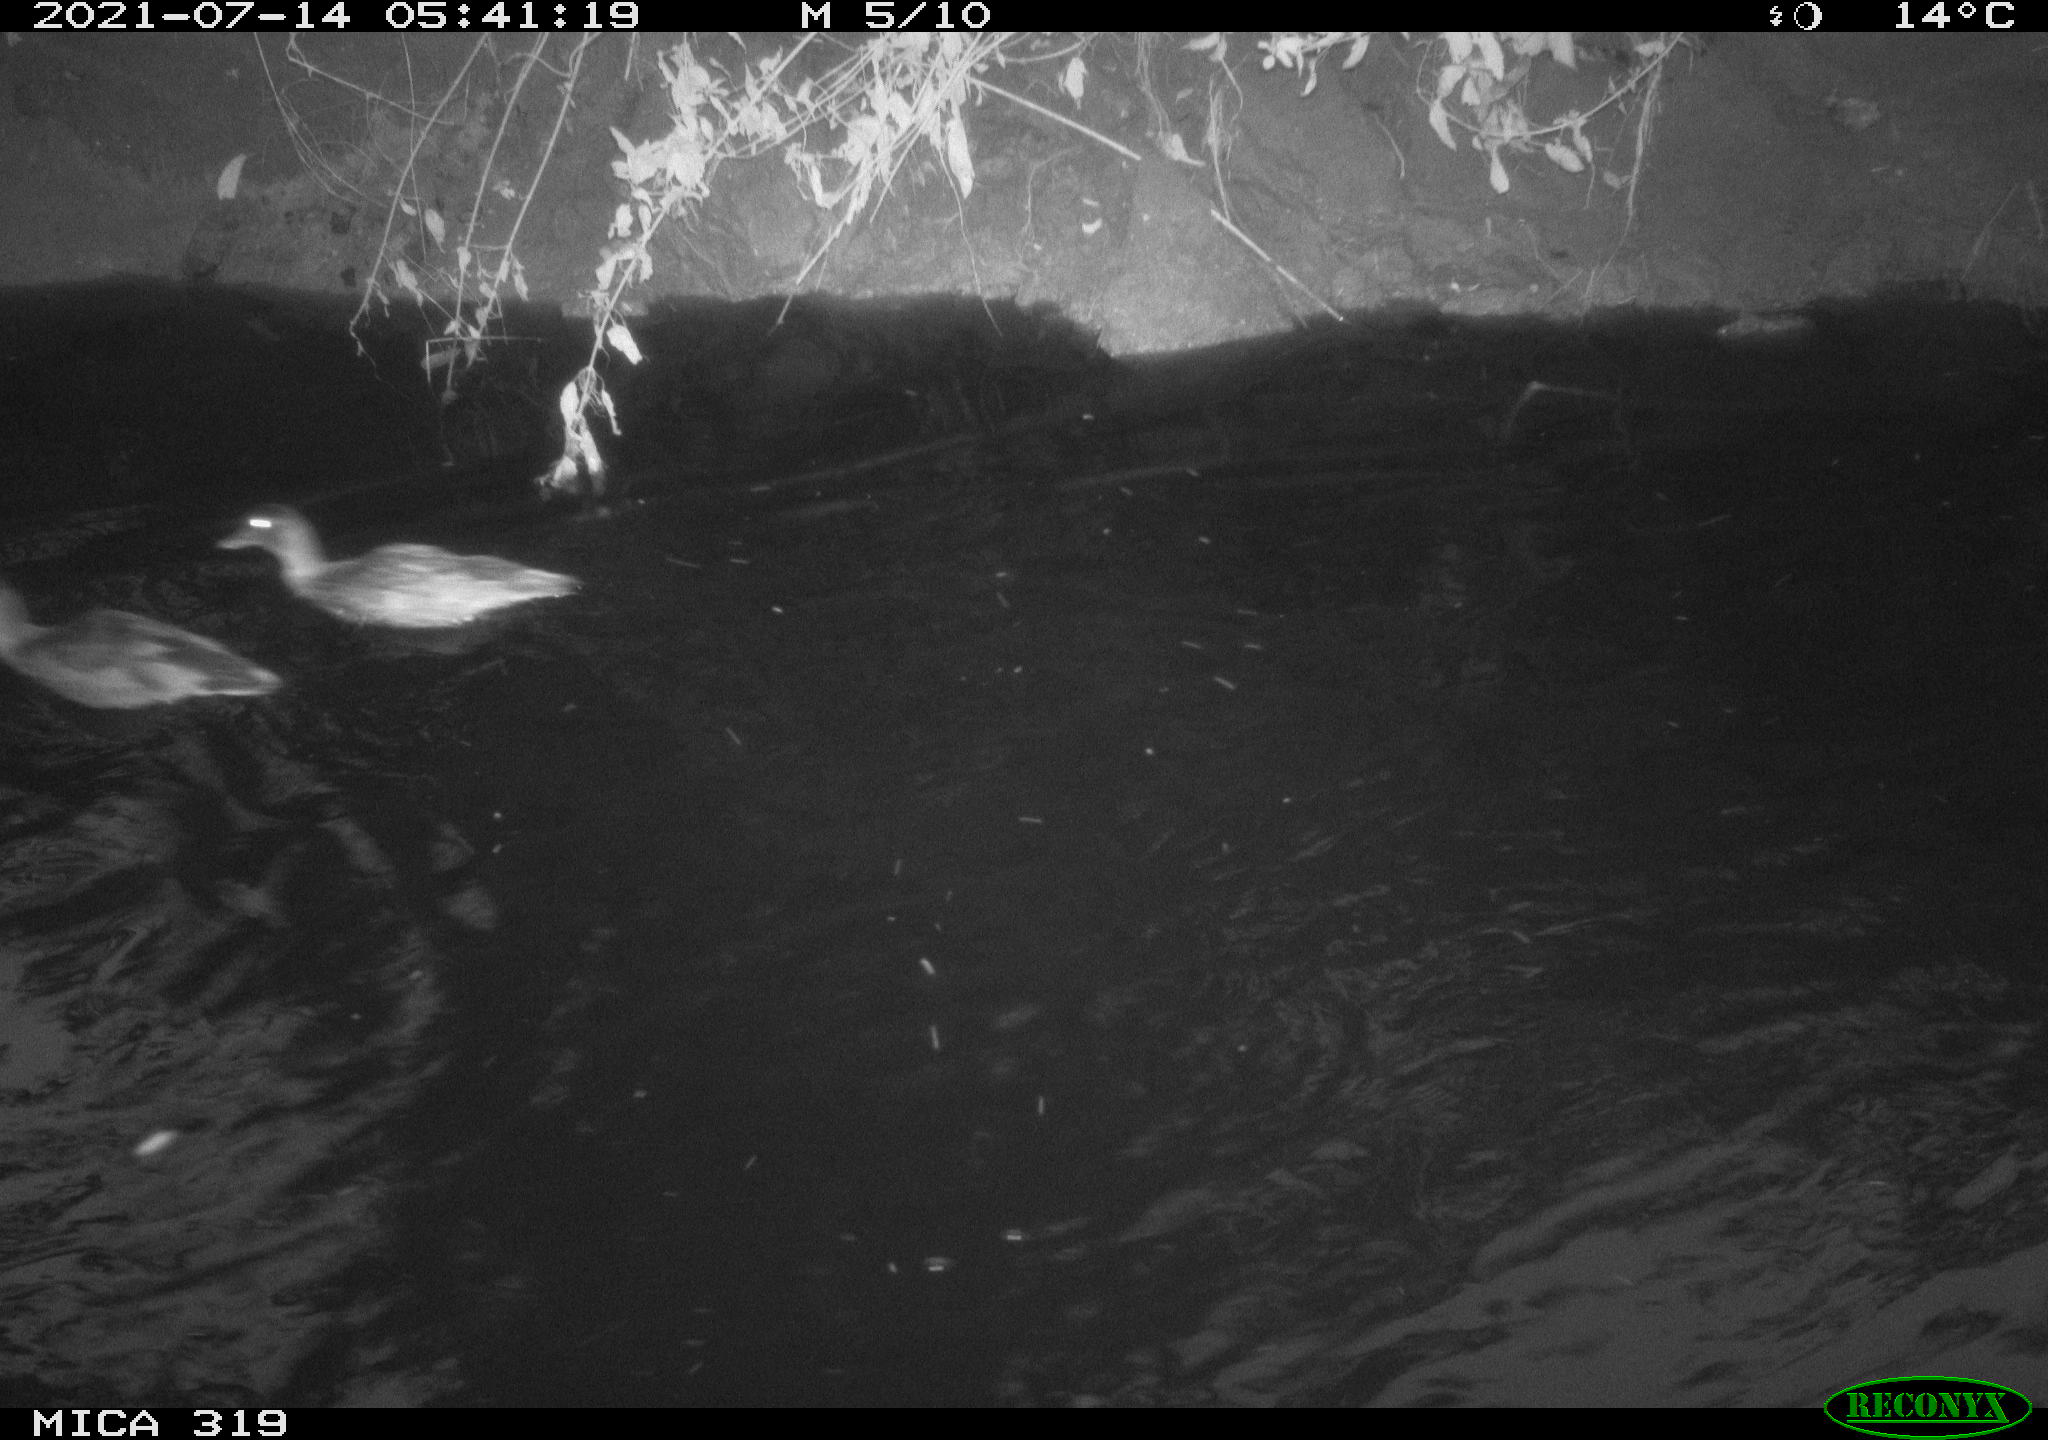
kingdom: Animalia
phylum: Chordata
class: Aves
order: Anseriformes
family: Anatidae
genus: Anas
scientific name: Anas platyrhynchos
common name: Mallard
